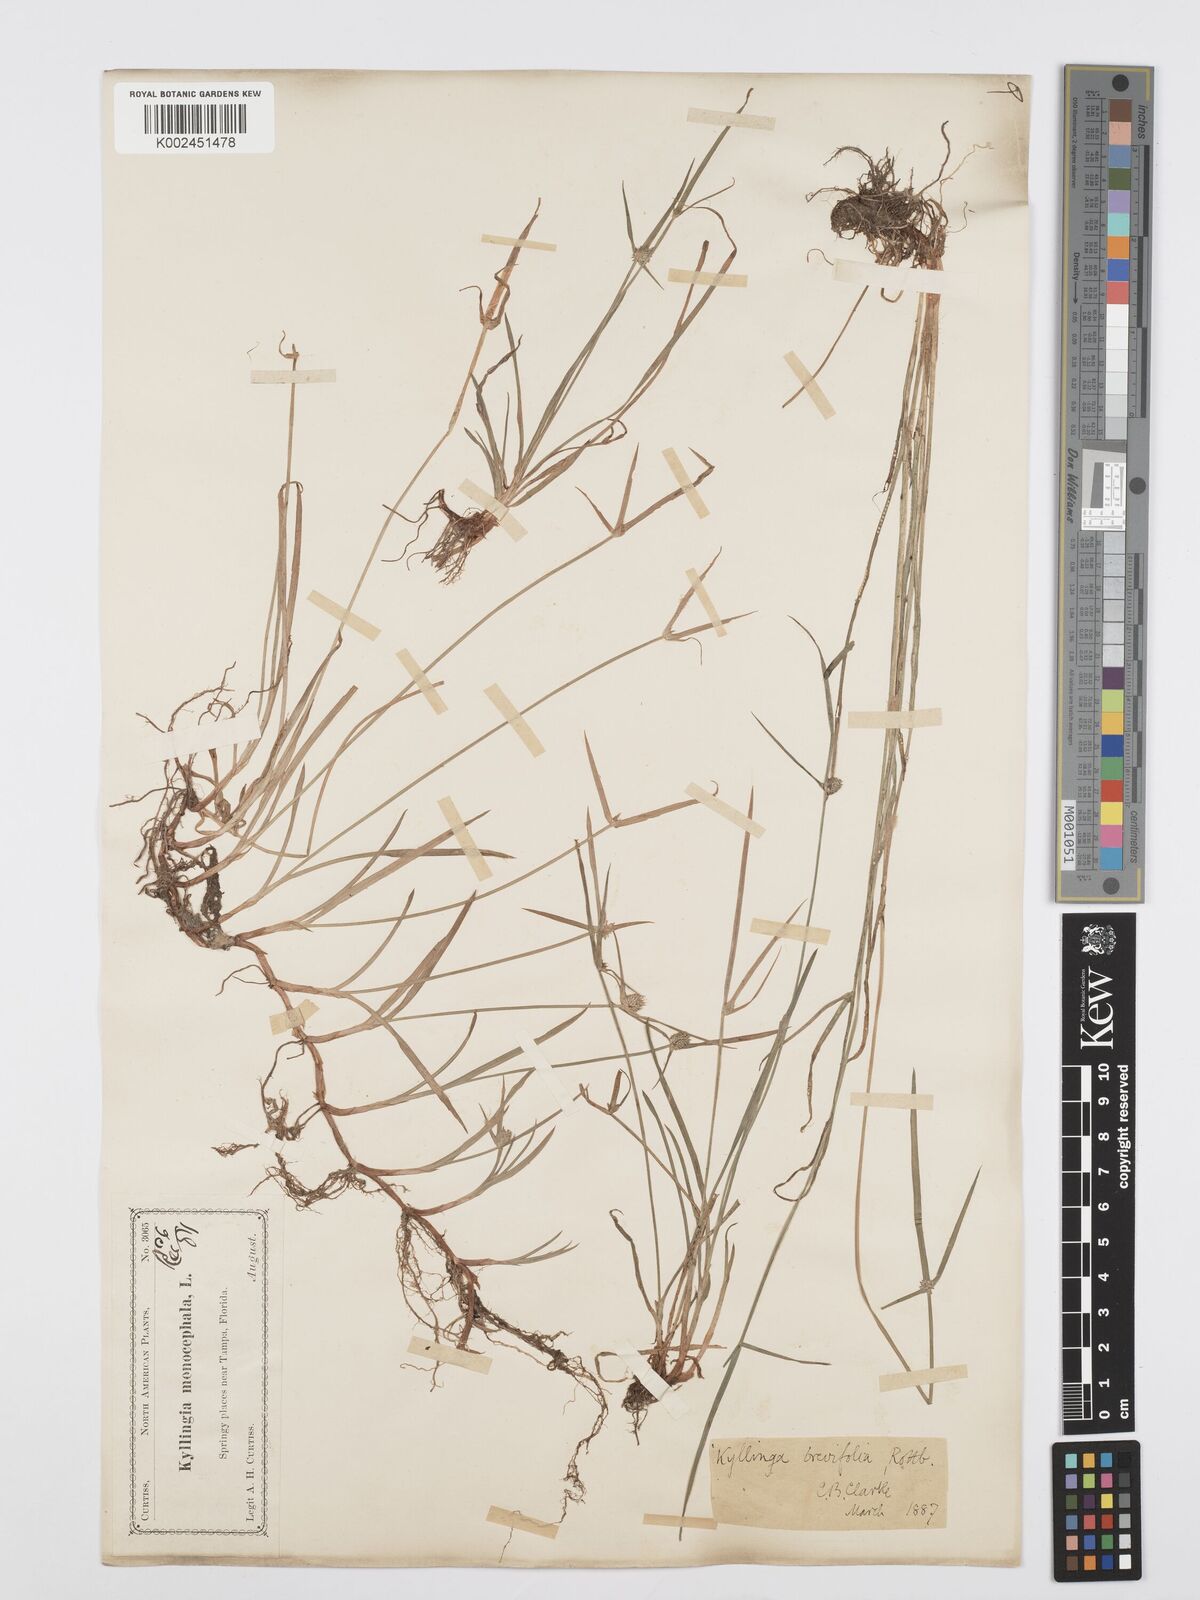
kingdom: Plantae
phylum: Tracheophyta
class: Liliopsida
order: Poales
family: Cyperaceae
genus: Cyperus
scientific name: Cyperus brevifolius
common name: Globe kyllinga
